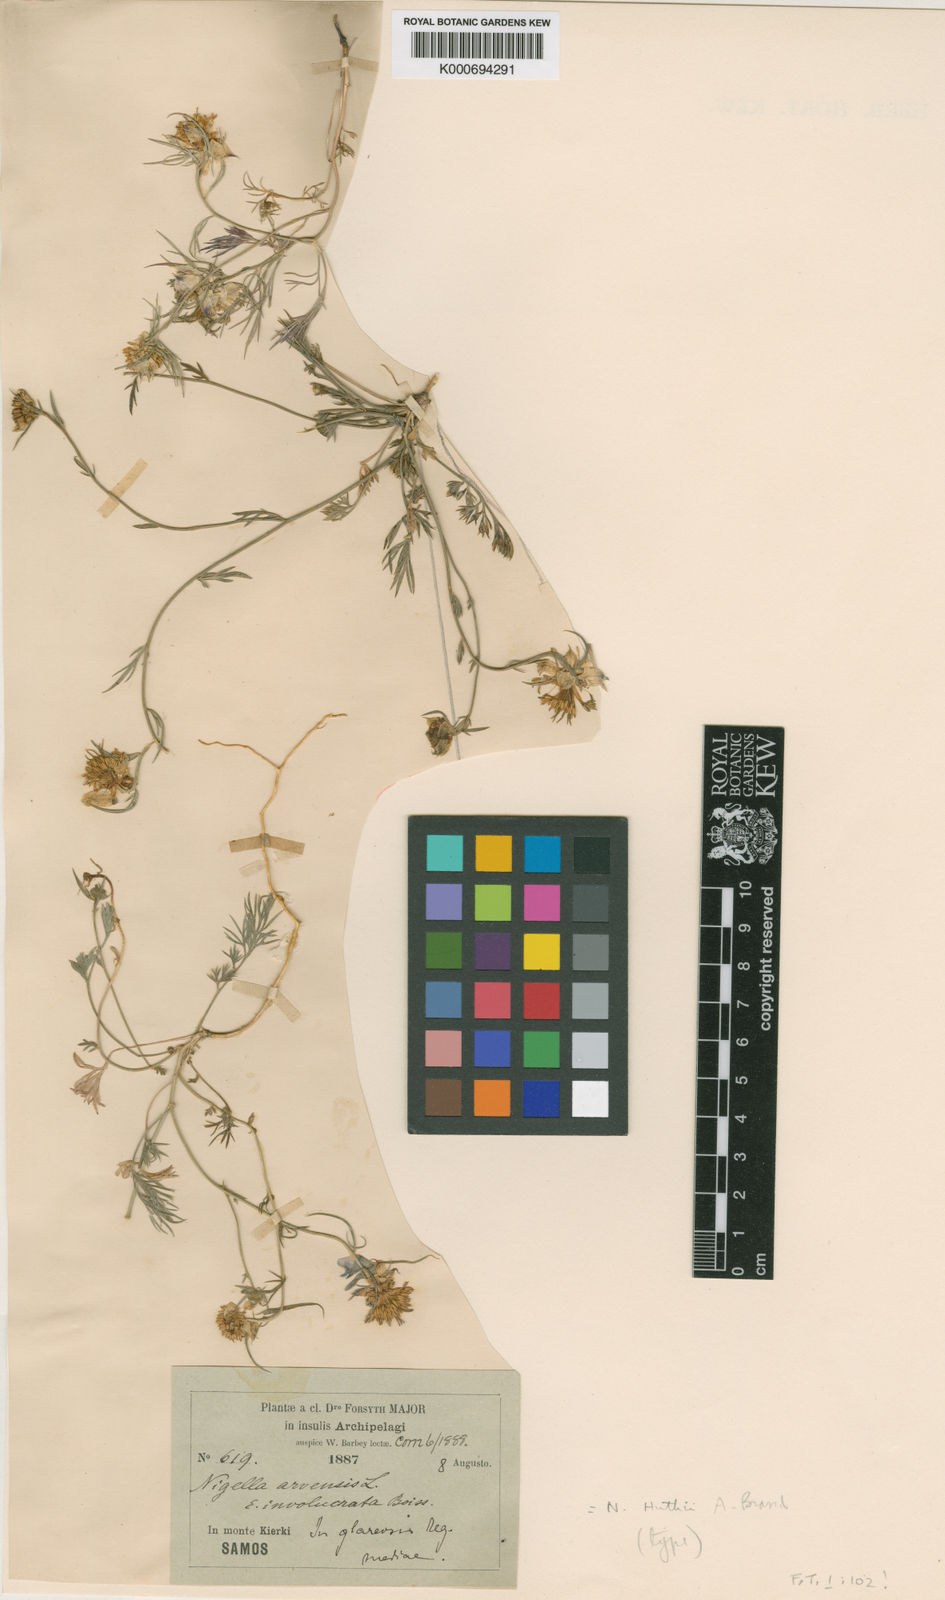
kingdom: Plantae
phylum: Tracheophyta
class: Magnoliopsida
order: Ranunculales
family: Ranunculaceae
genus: Nigella
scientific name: Nigella arvensis
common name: Wild fennel-flower
